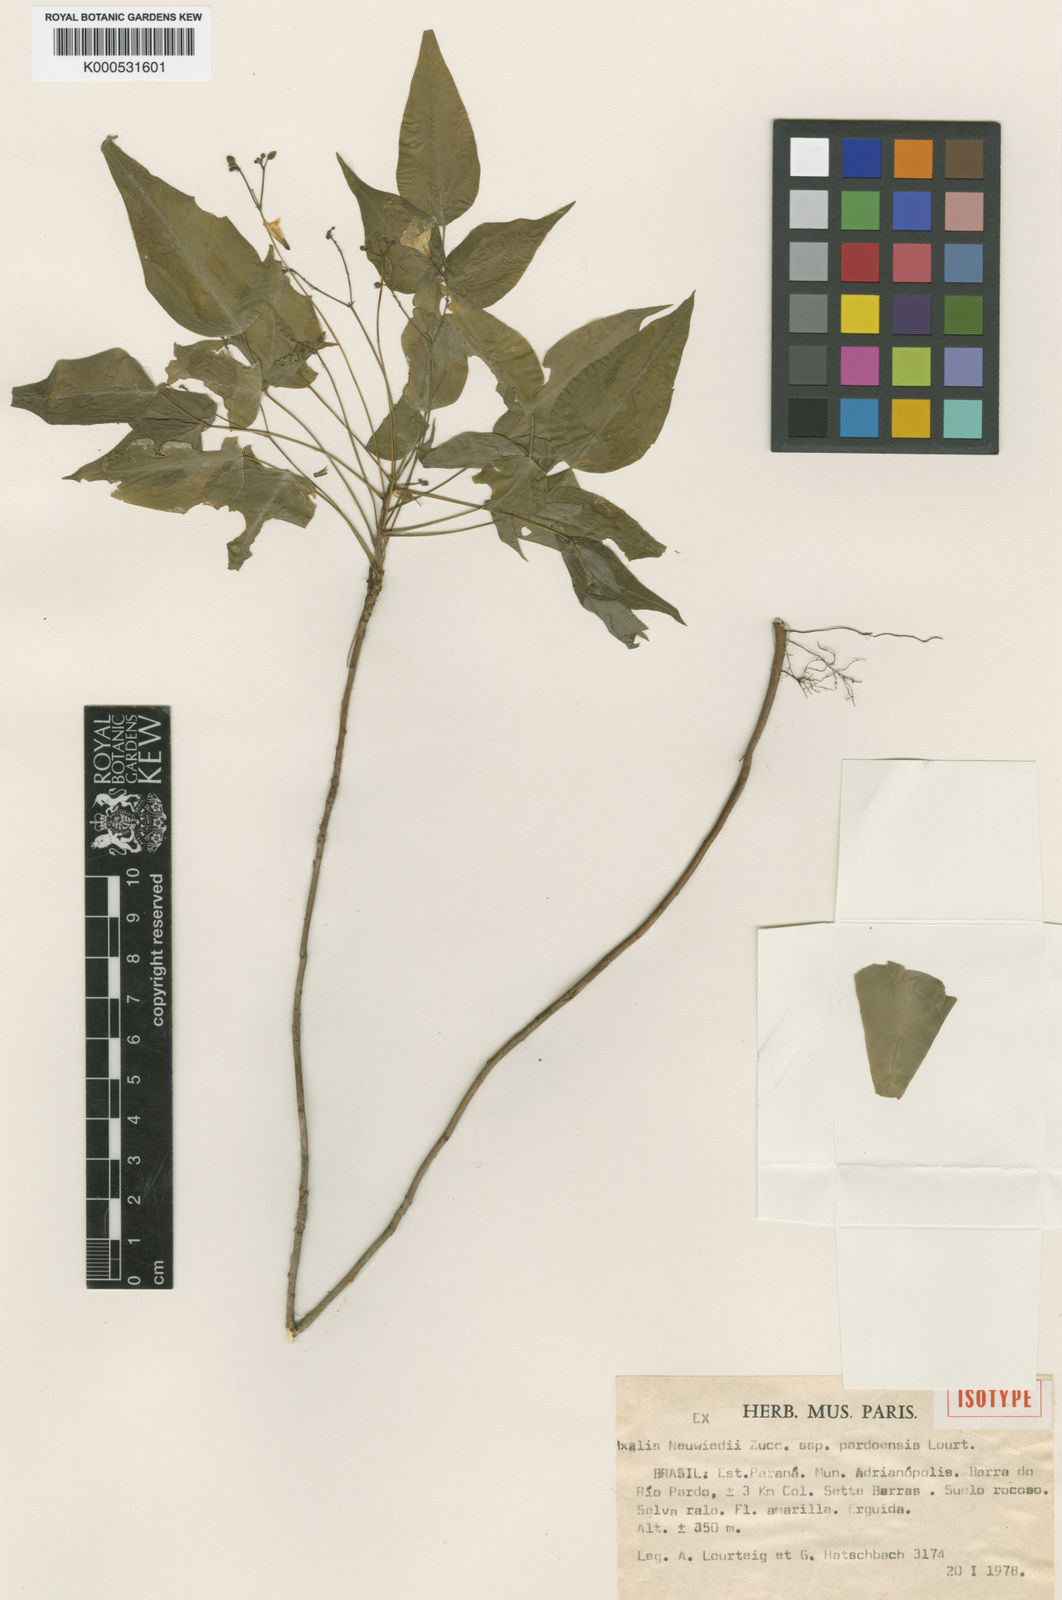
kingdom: Plantae
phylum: Tracheophyta
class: Magnoliopsida
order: Oxalidales
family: Oxalidaceae
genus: Oxalis
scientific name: Oxalis pardoensis
